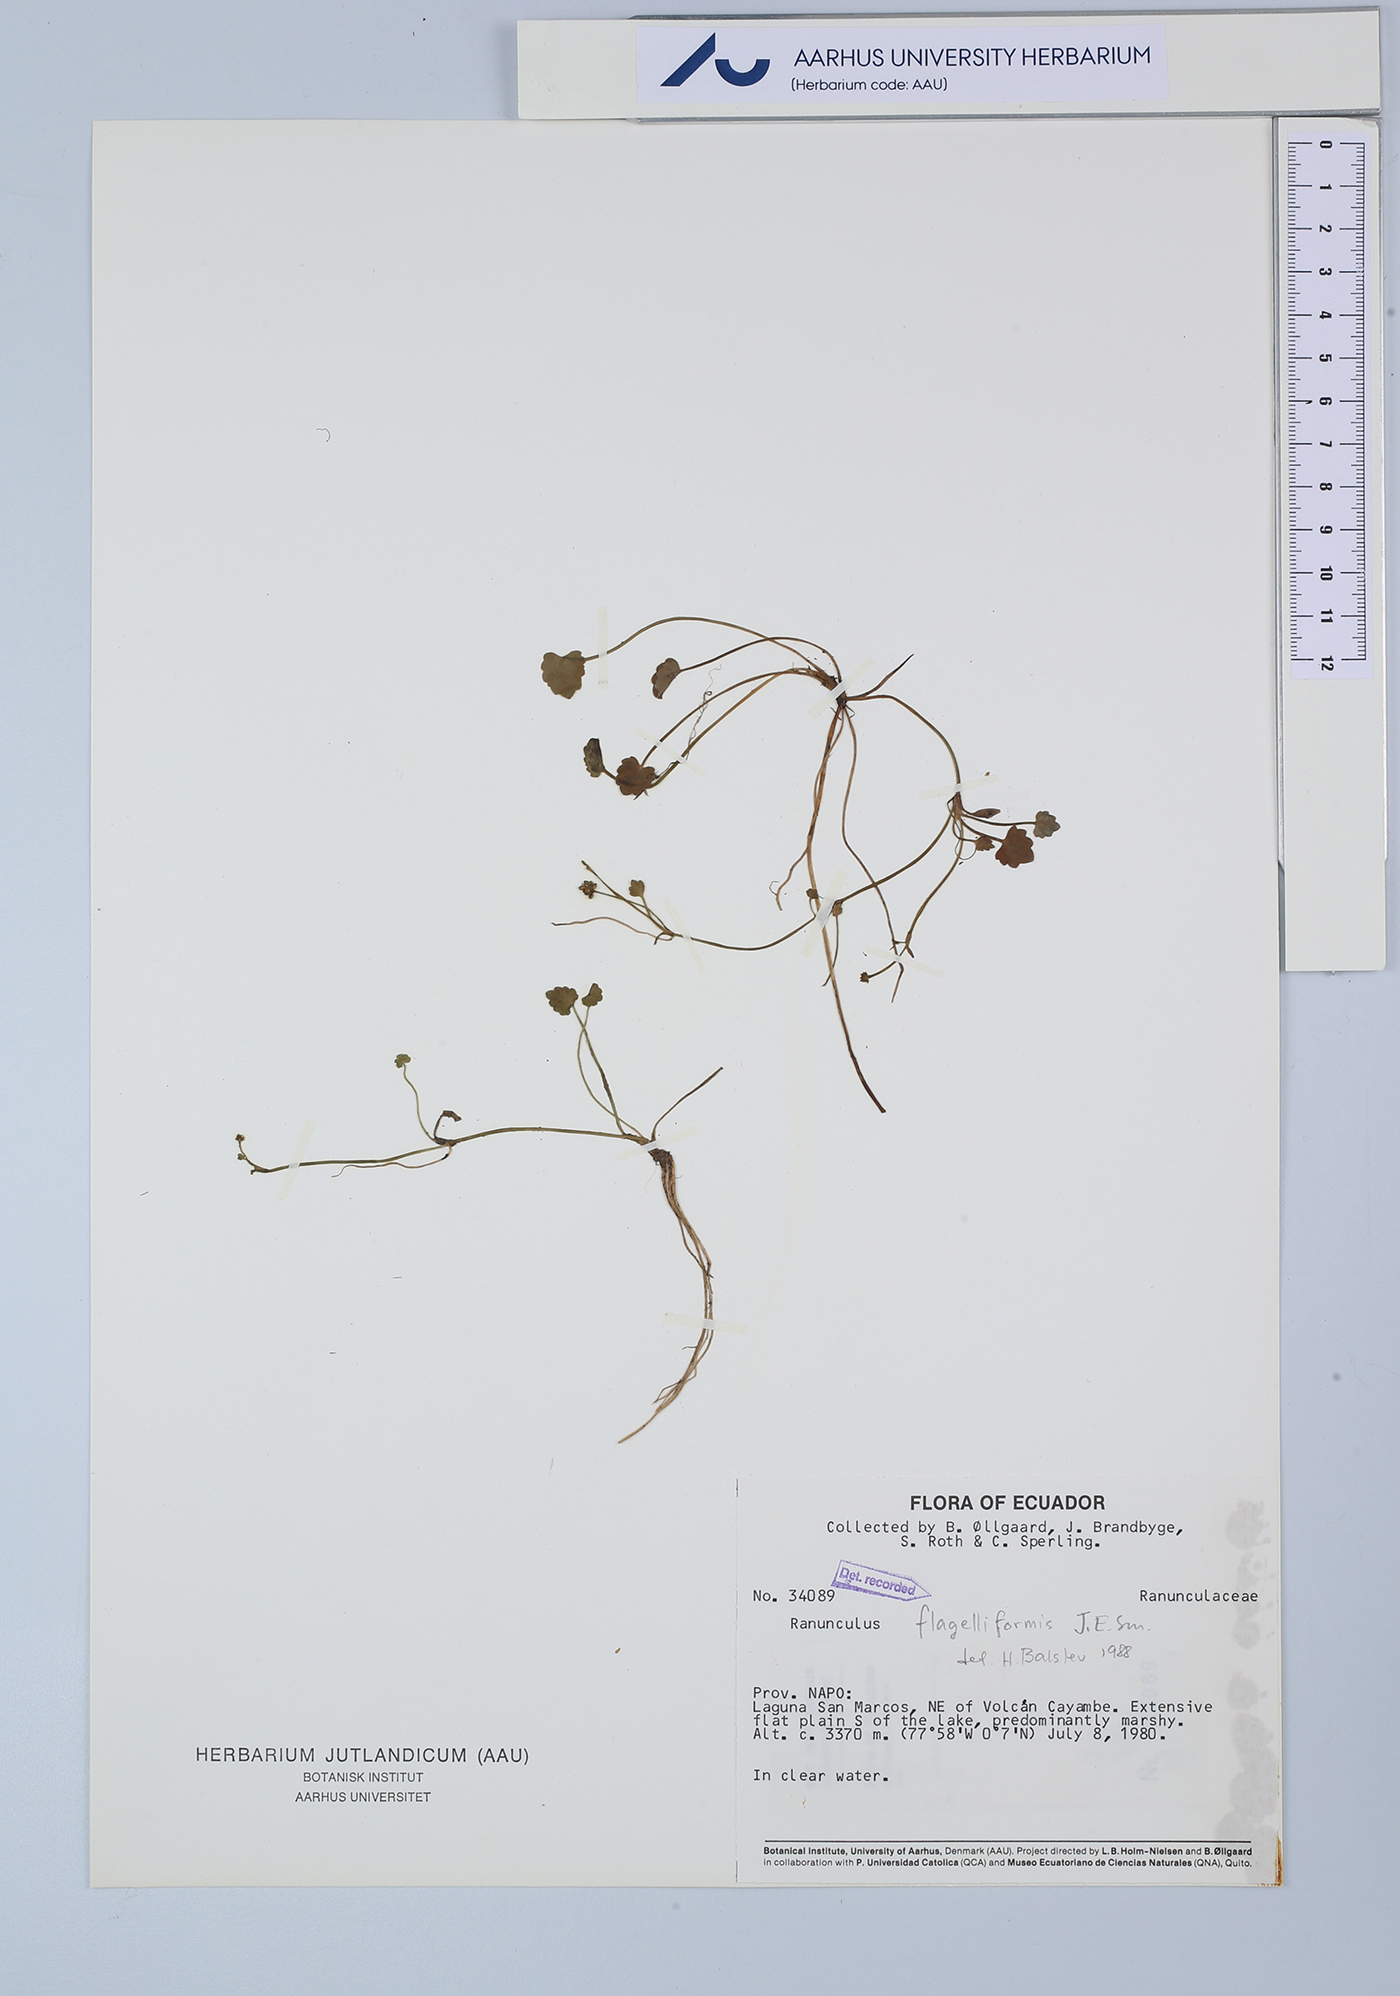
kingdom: Plantae
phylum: Tracheophyta
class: Magnoliopsida
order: Ranunculales
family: Ranunculaceae
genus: Ranunculus
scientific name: Ranunculus flagelliformis
